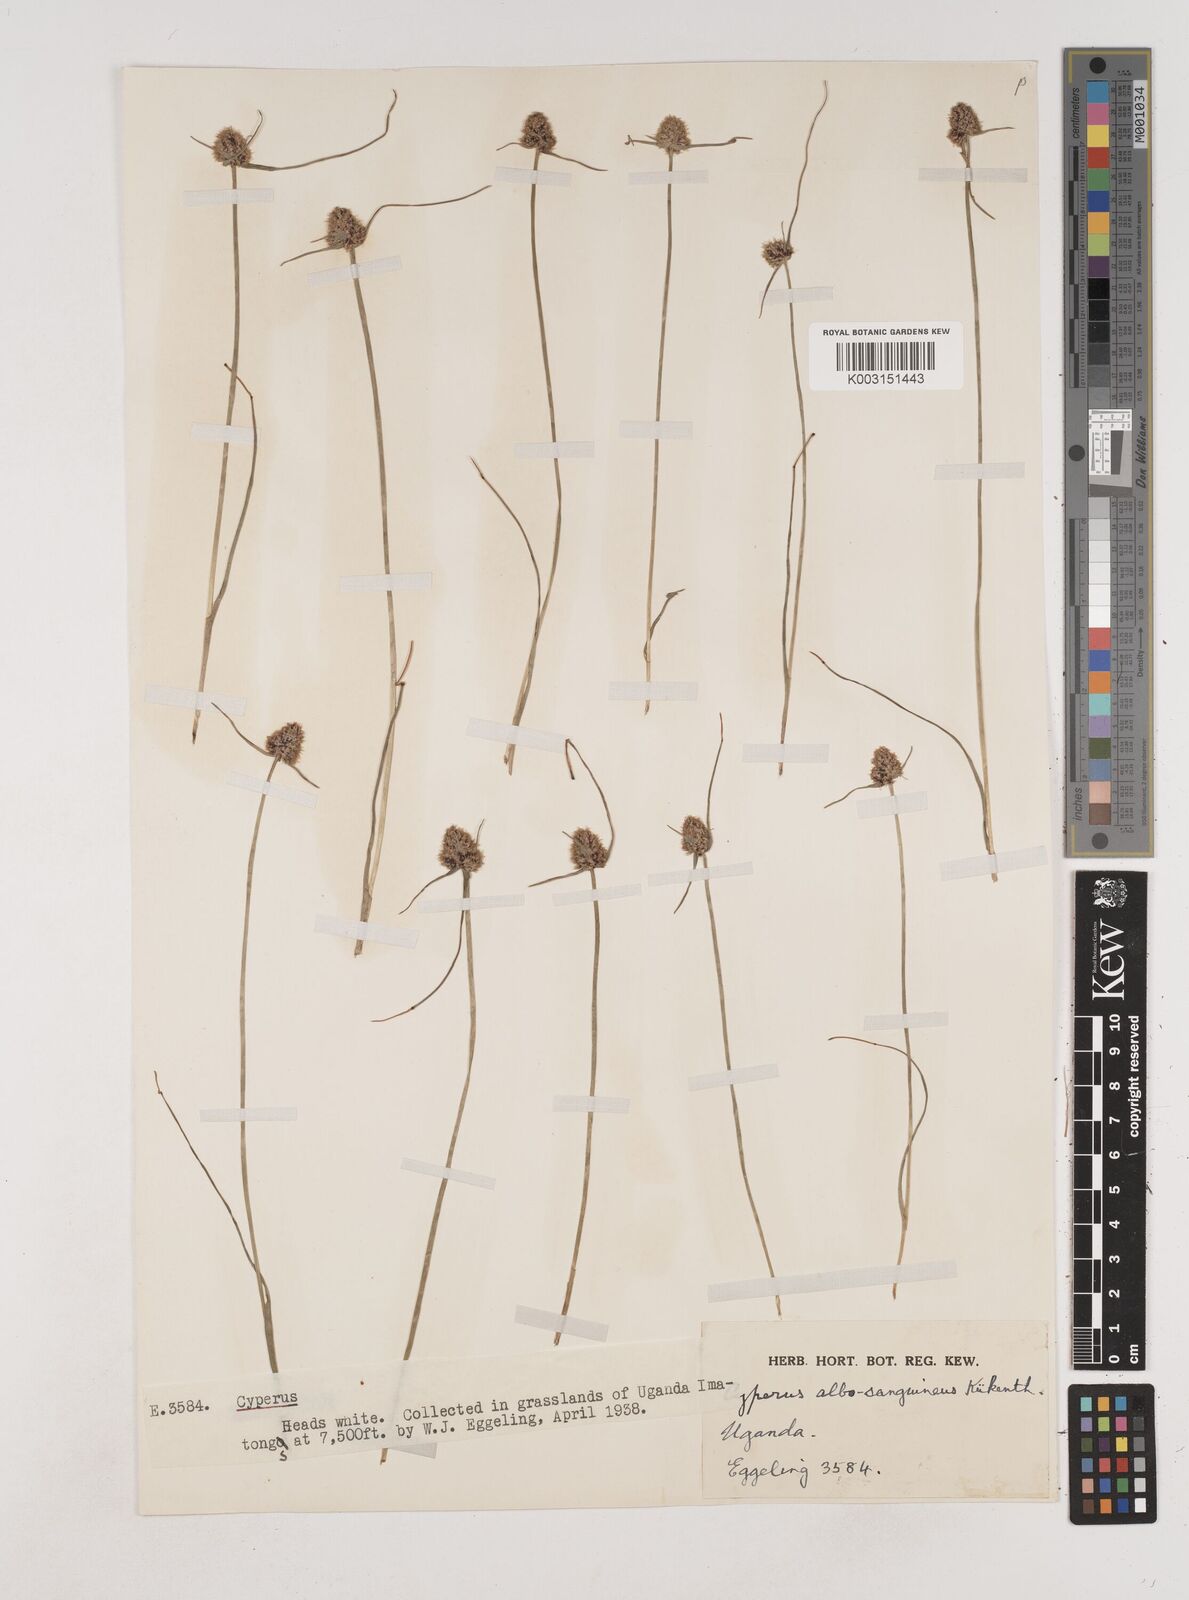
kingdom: Plantae
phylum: Tracheophyta
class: Liliopsida
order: Poales
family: Cyperaceae
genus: Cyperus
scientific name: Cyperus albosanguineus
